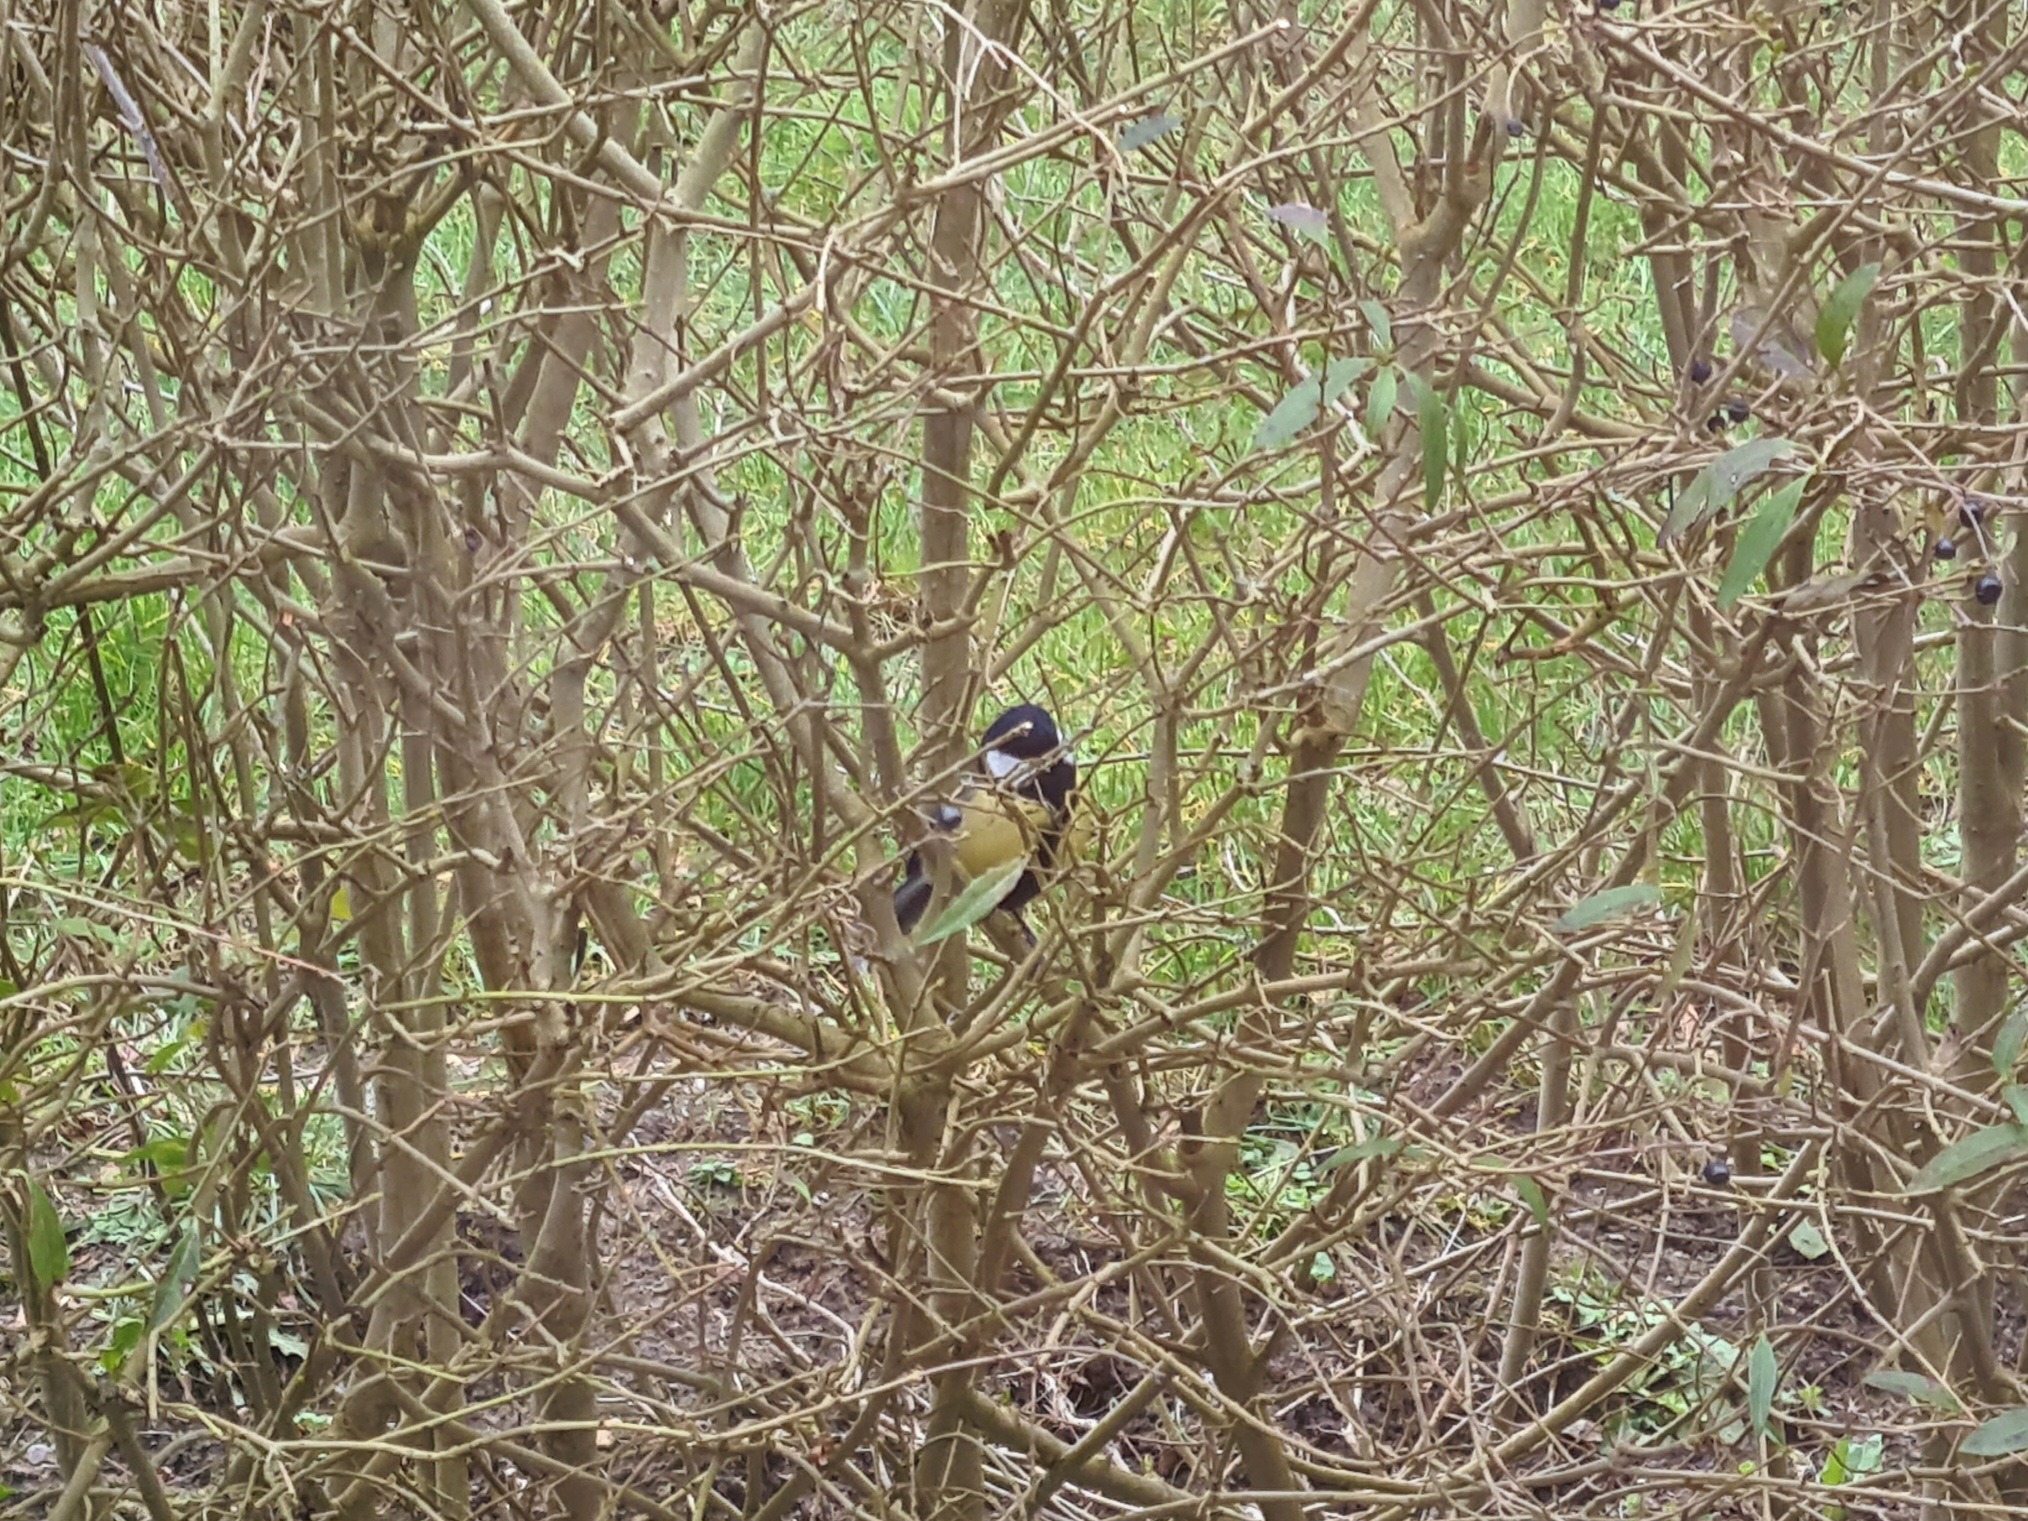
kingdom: Animalia
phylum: Chordata
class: Aves
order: Passeriformes
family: Paridae
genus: Parus
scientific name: Parus major
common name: Musvit
